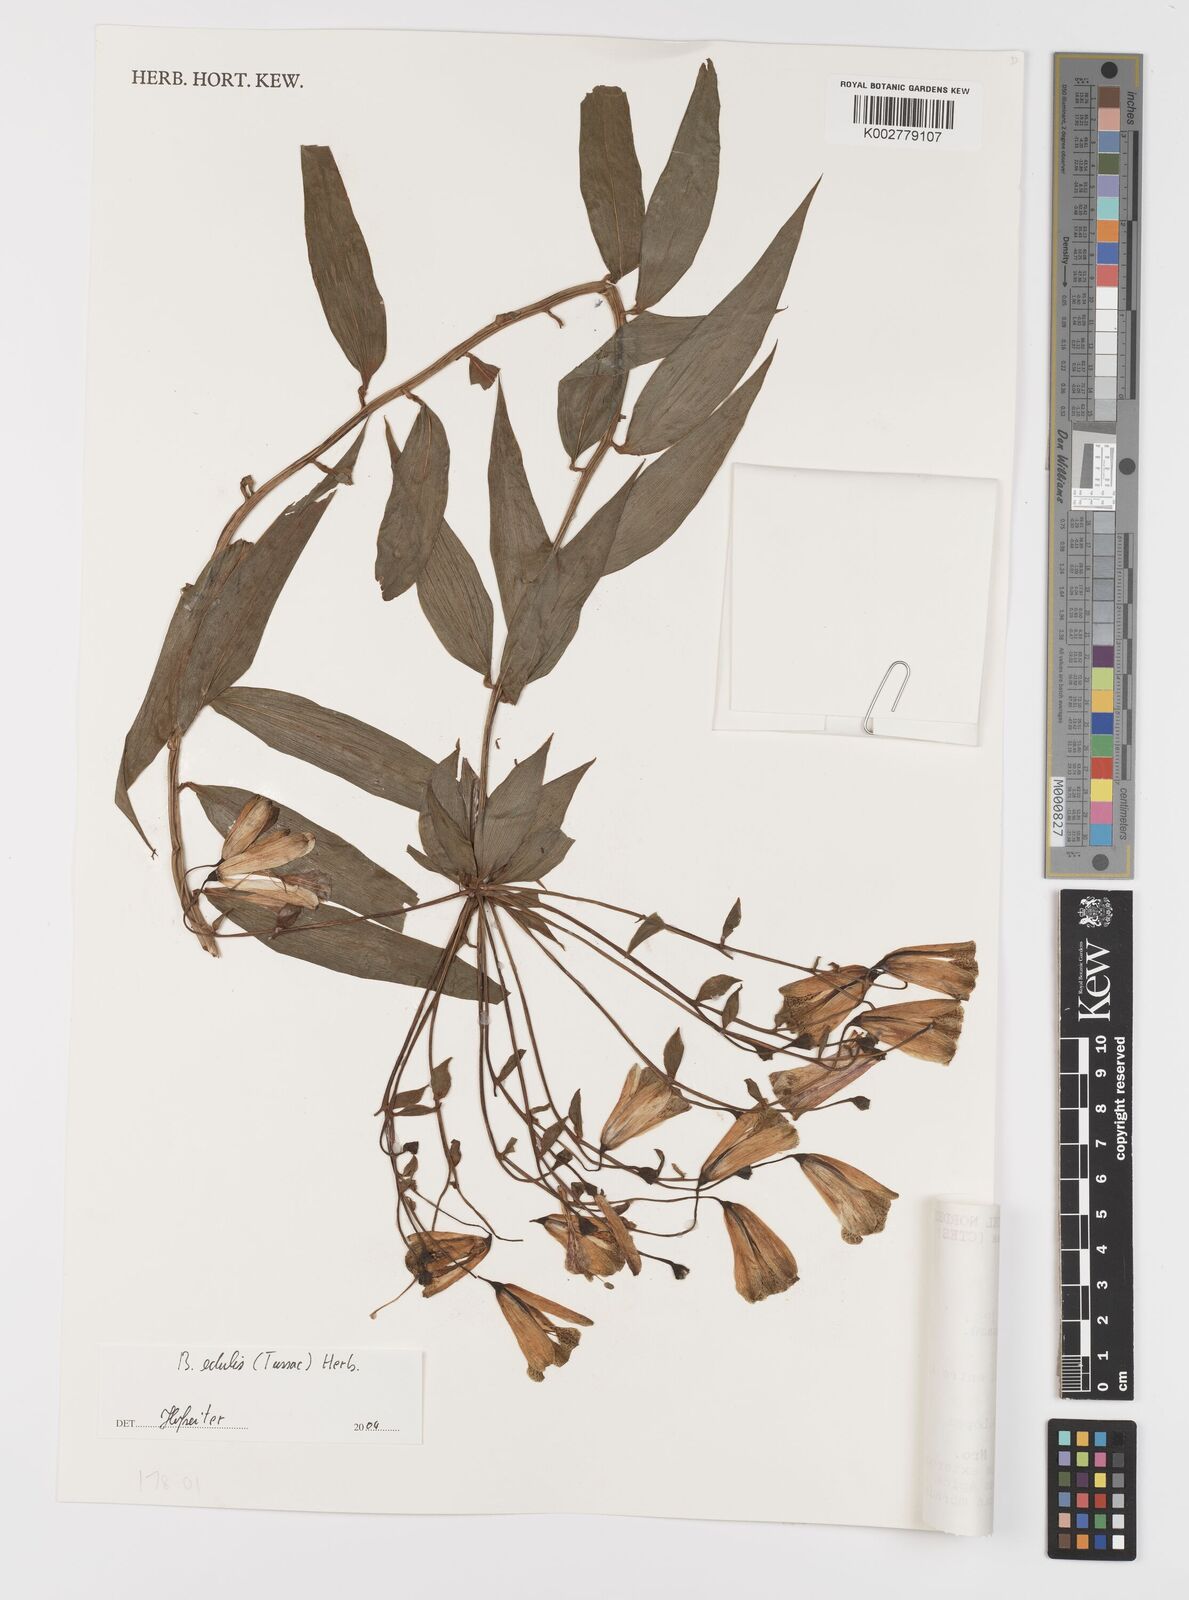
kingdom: Plantae
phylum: Tracheophyta
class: Liliopsida
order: Liliales
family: Alstroemeriaceae
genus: Bomarea
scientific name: Bomarea edulis
